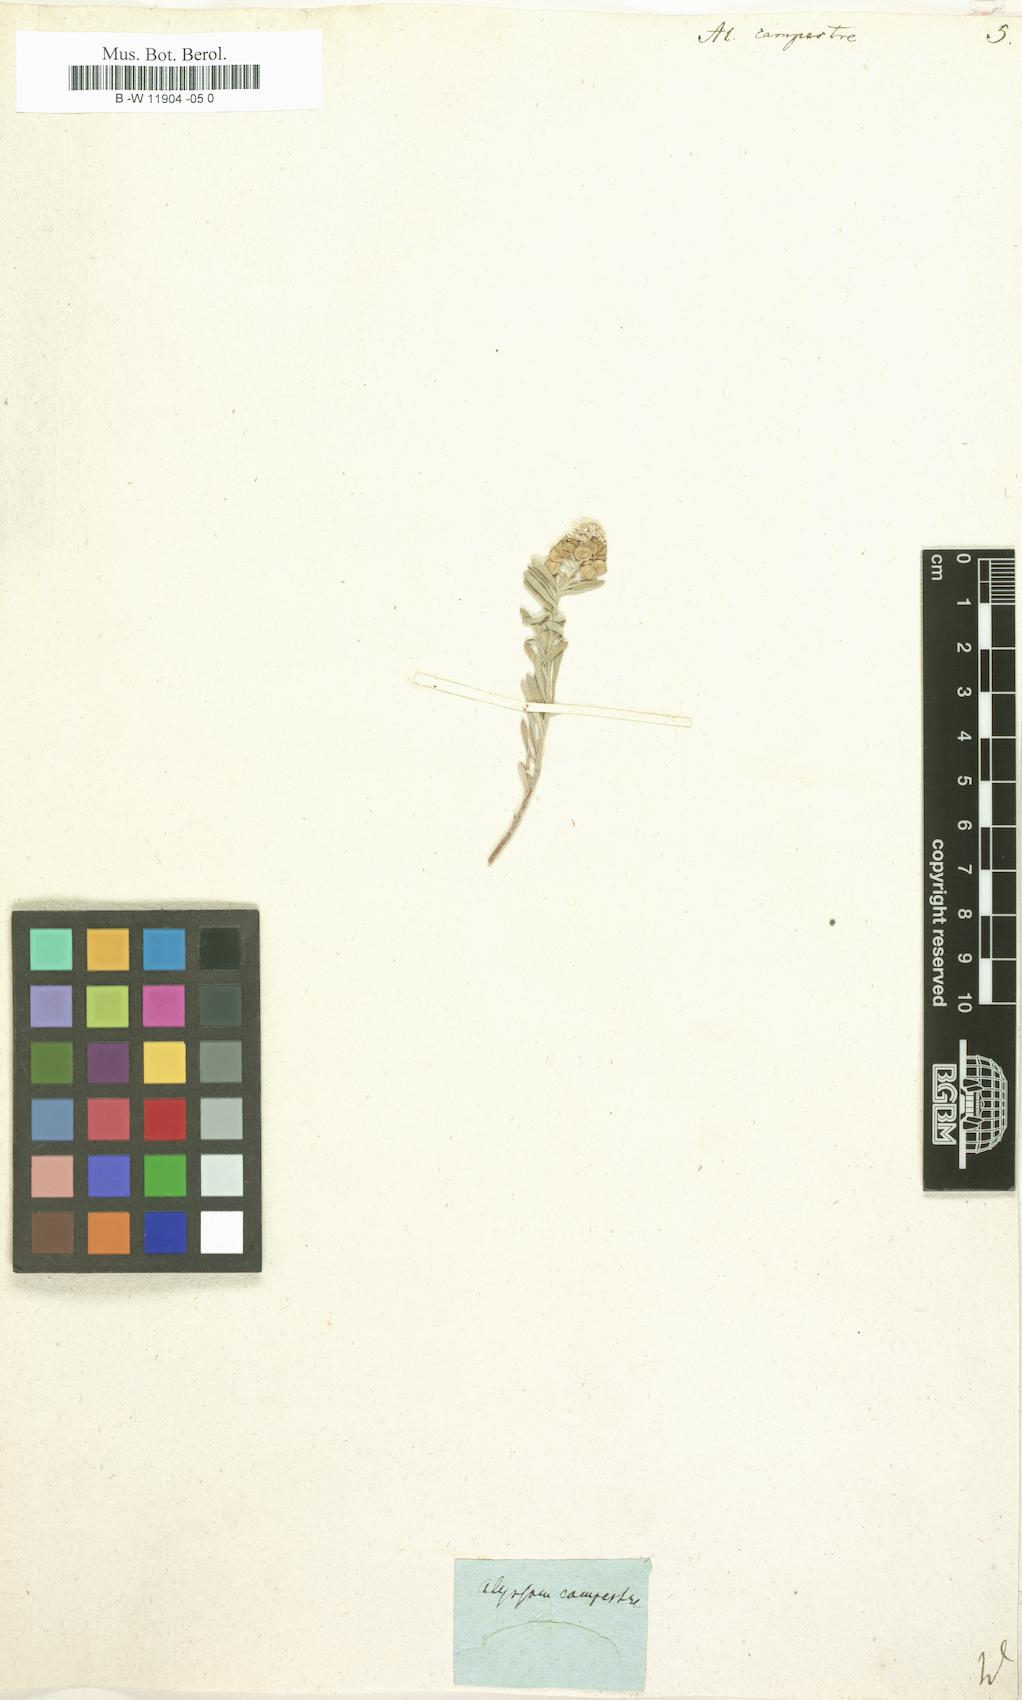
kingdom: Plantae
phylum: Tracheophyta
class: Magnoliopsida
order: Brassicales
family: Brassicaceae
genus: Alyssum
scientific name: Alyssum alyssoides
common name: Small alison
